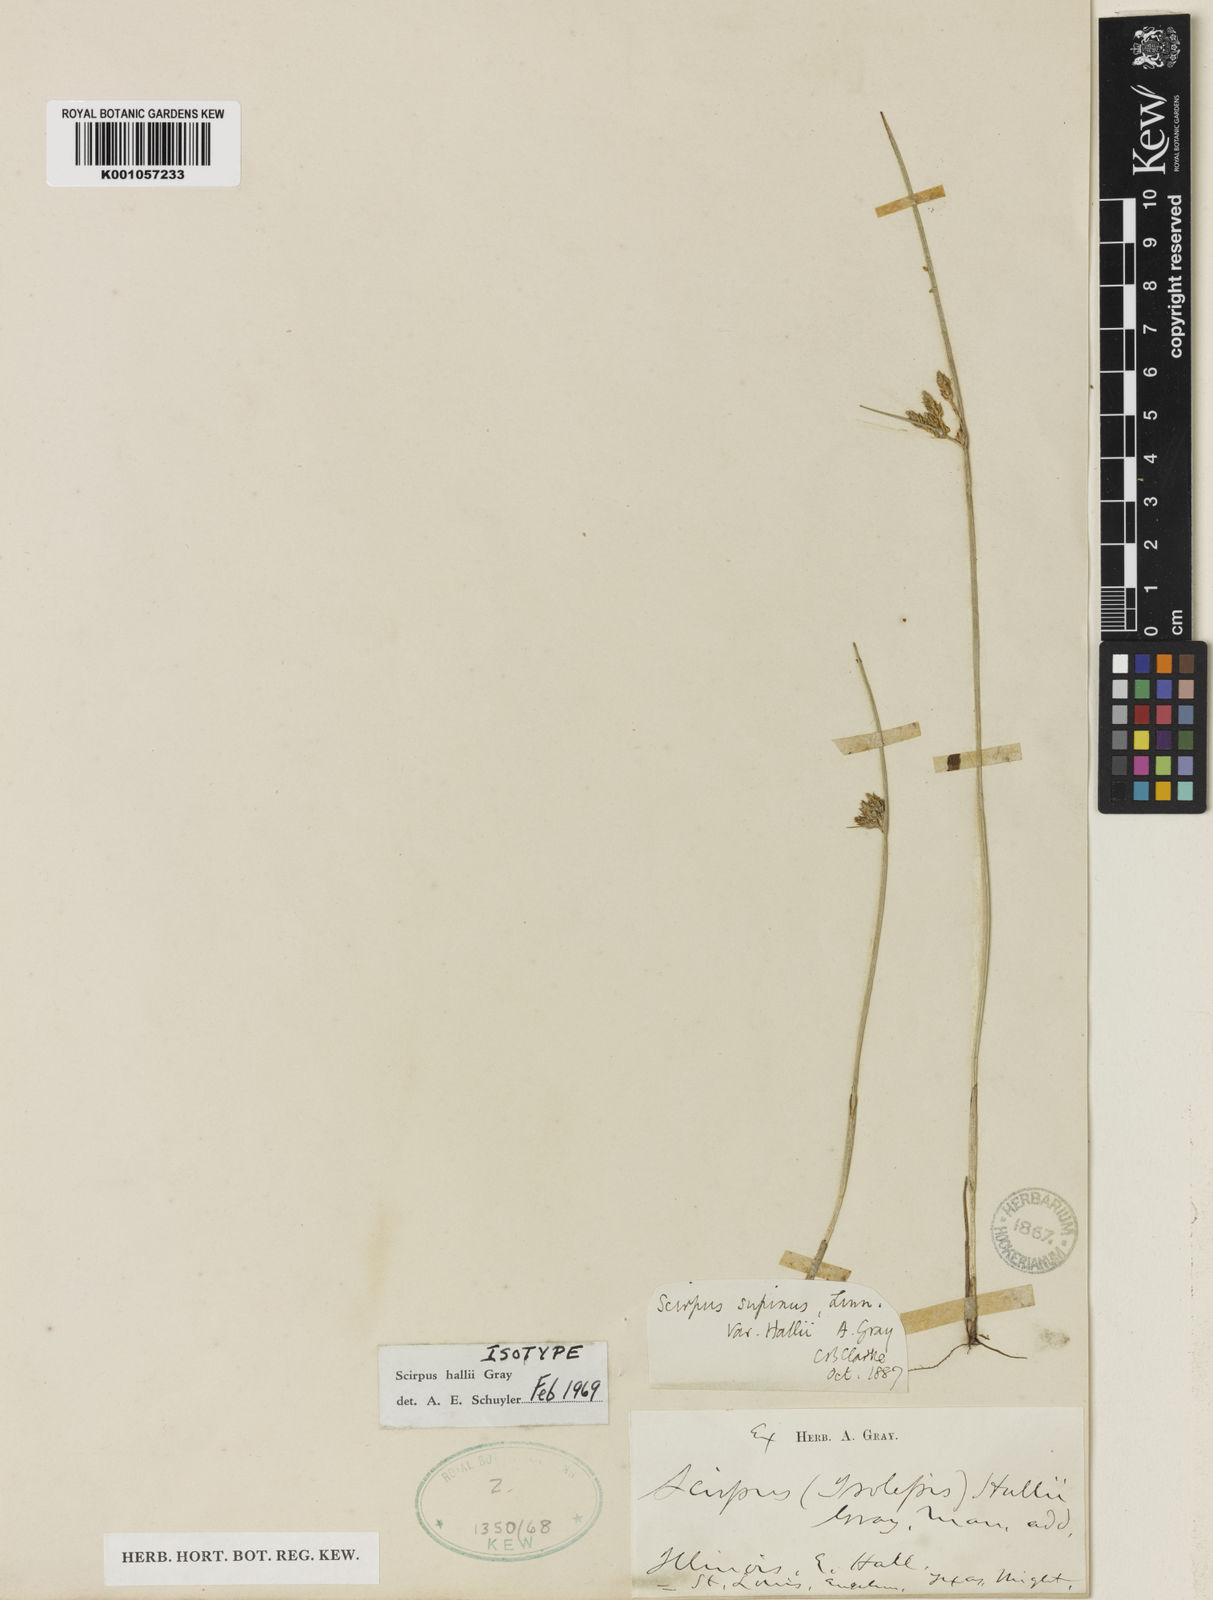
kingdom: Plantae
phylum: Tracheophyta
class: Liliopsida
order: Poales
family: Cyperaceae
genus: Schoenoplectiella
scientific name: Schoenoplectiella hallii
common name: Hall's bullrush
